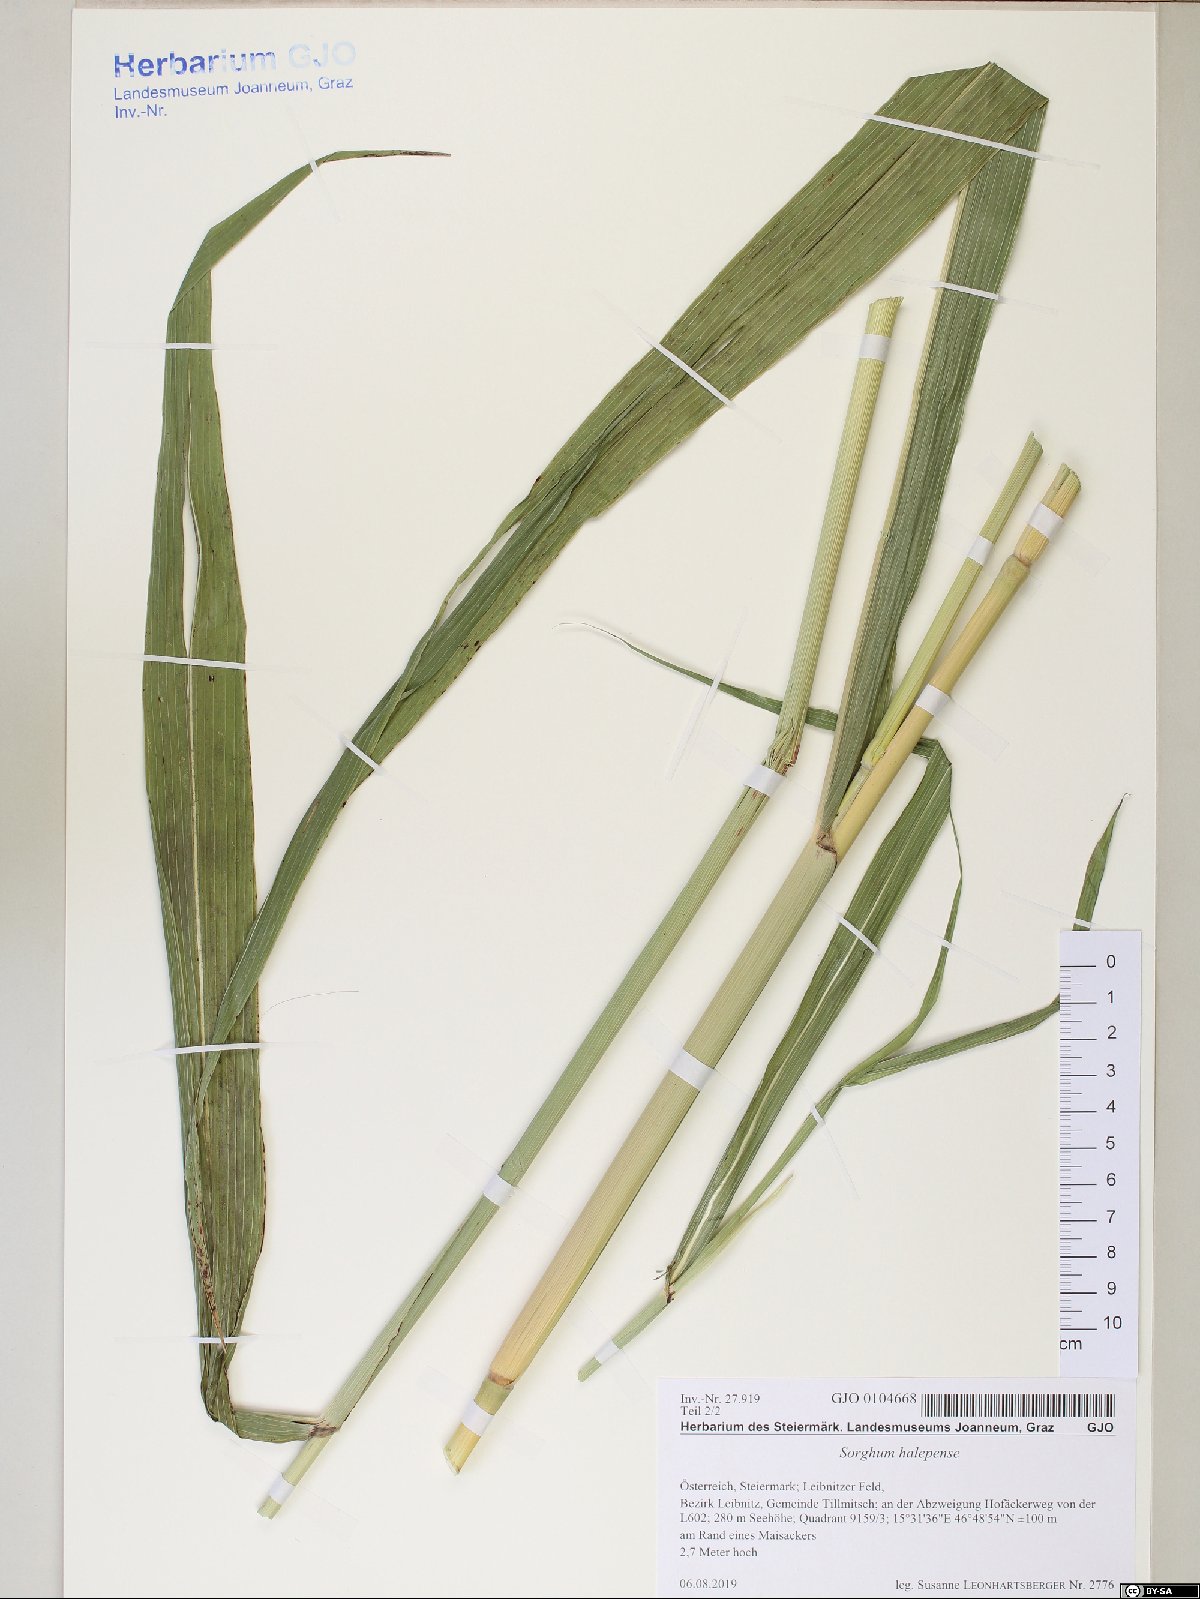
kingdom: Plantae
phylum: Tracheophyta
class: Liliopsida
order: Poales
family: Poaceae
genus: Sorghum
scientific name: Sorghum halepense
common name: Johnson-grass
